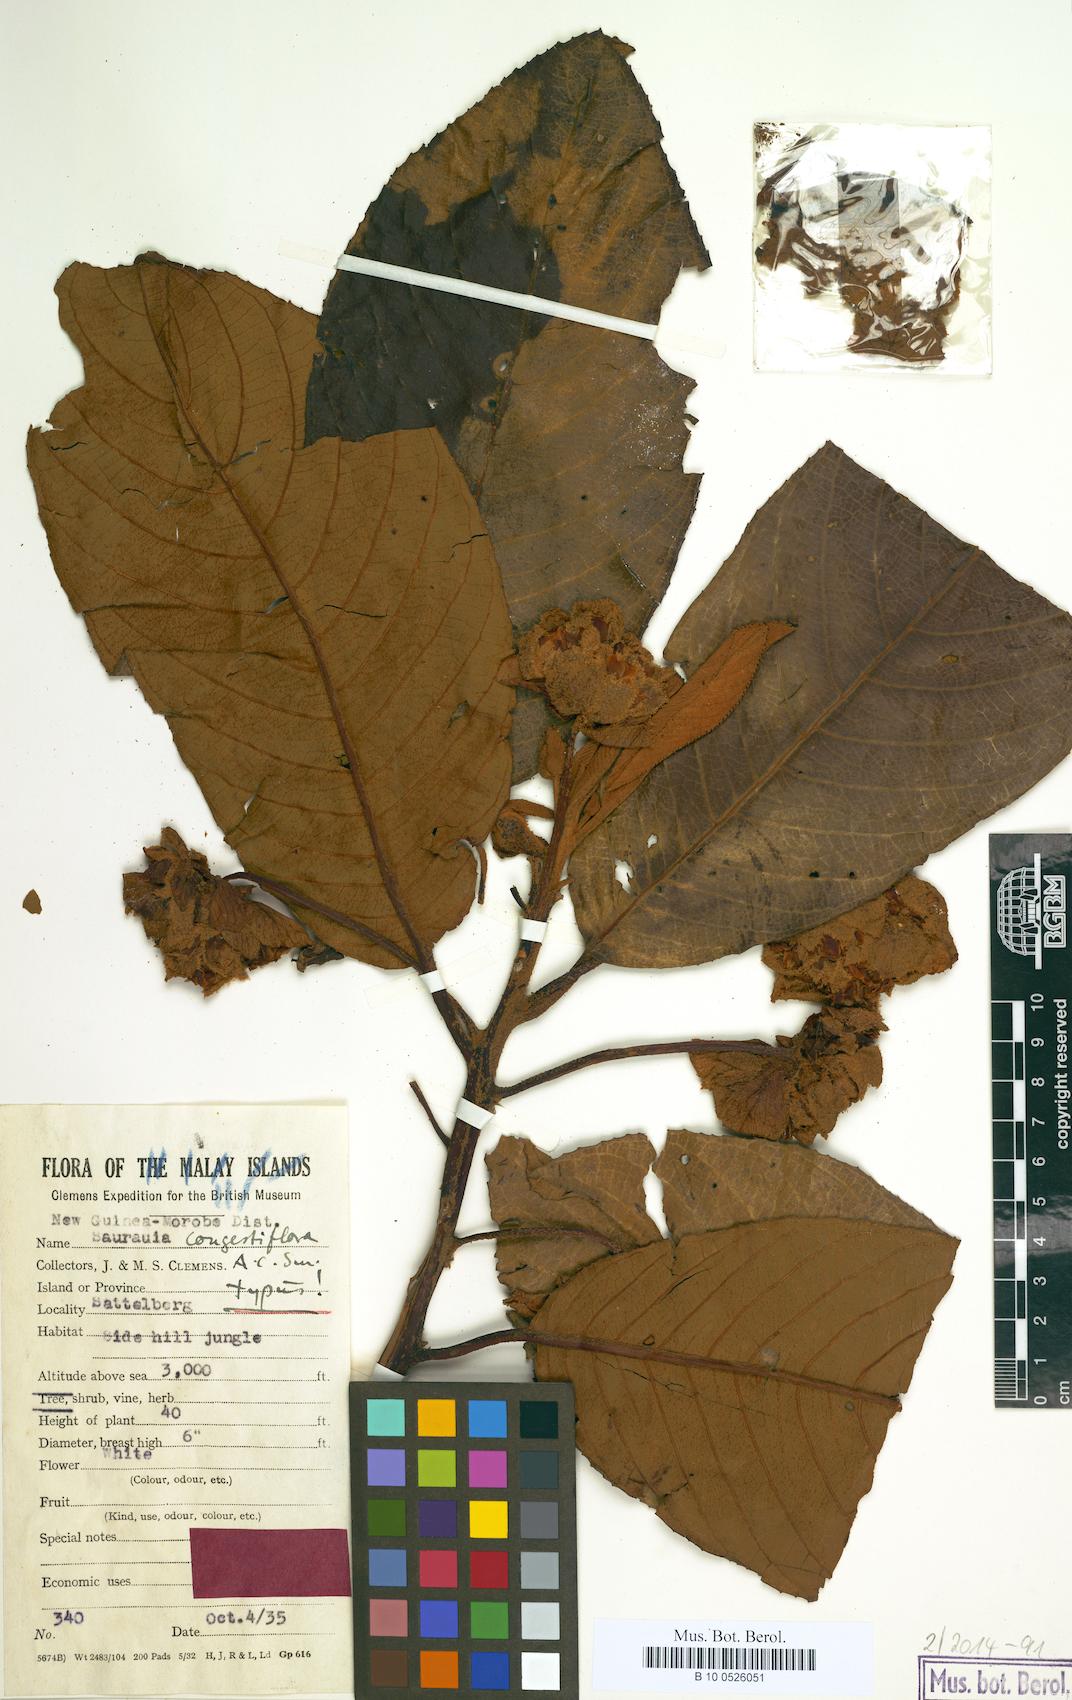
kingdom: Plantae
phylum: Tracheophyta
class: Magnoliopsida
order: Ericales
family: Actinidiaceae
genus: Saurauia
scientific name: Saurauia congestiflora
